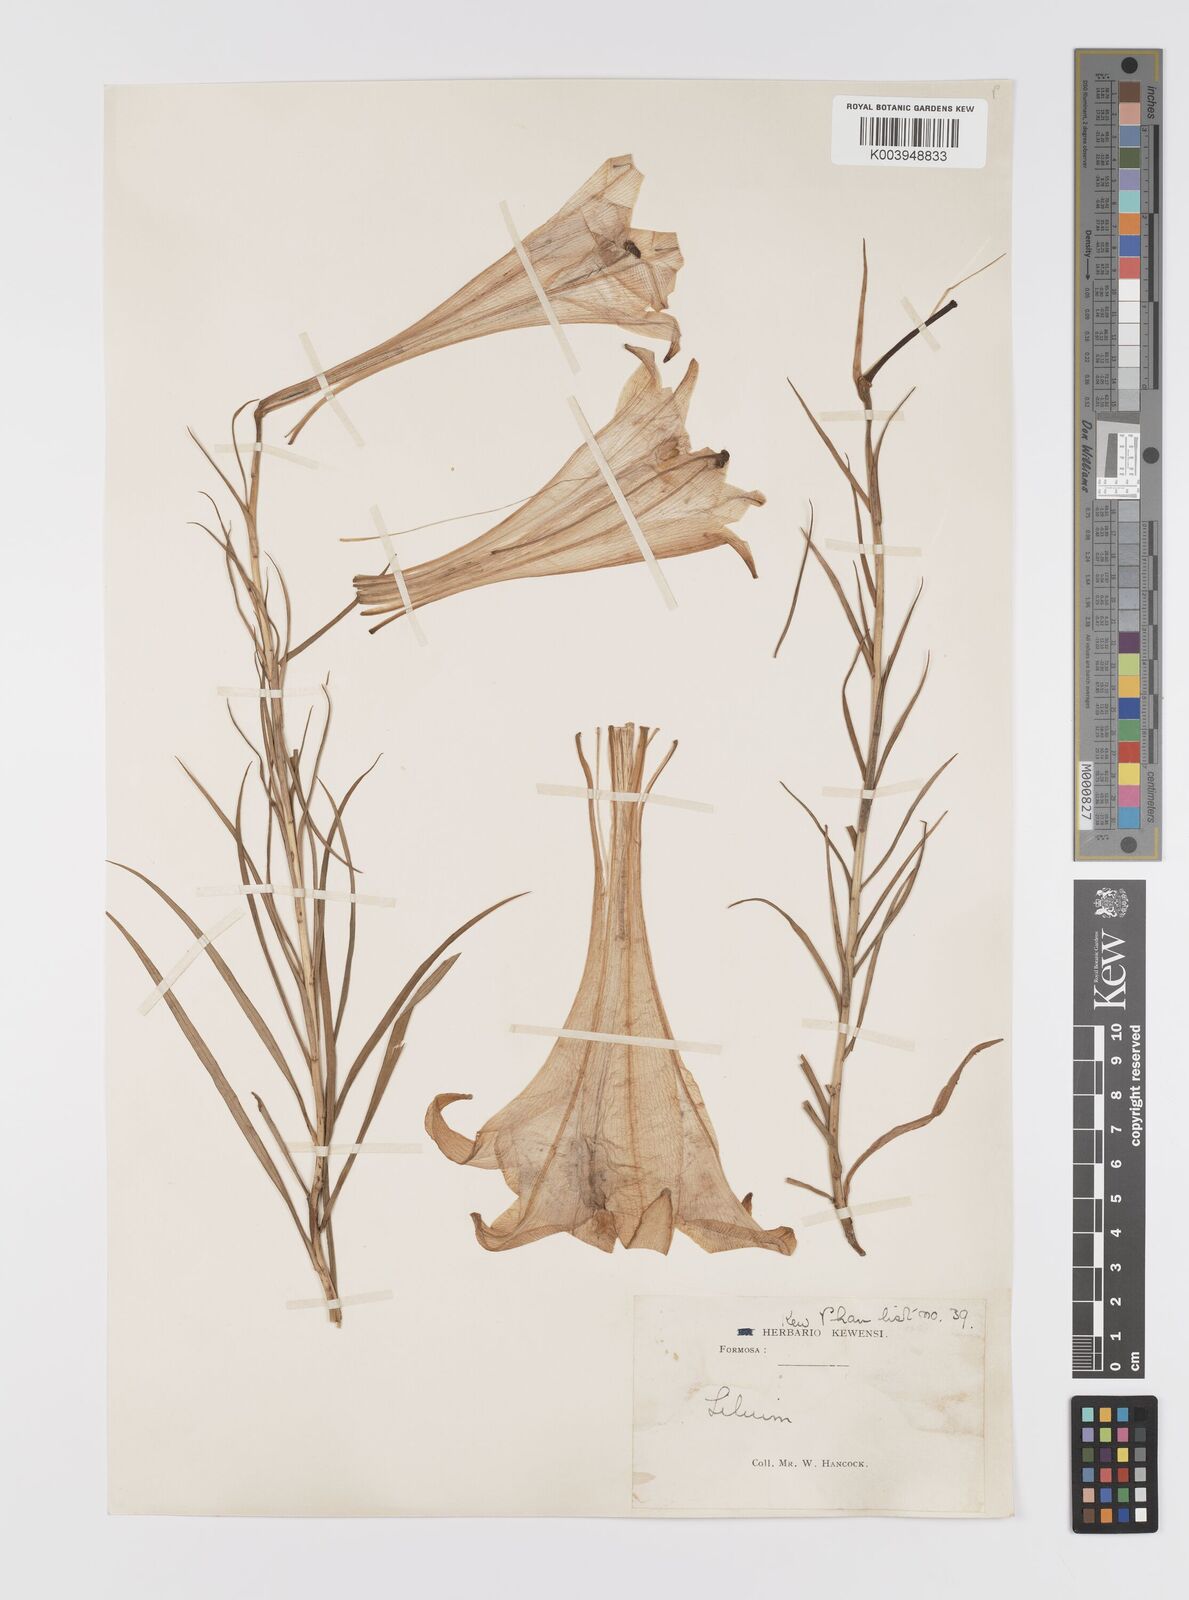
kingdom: Plantae
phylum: Tracheophyta
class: Liliopsida
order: Liliales
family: Liliaceae
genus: Lilium
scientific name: Lilium formosanum
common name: Formosa lily
